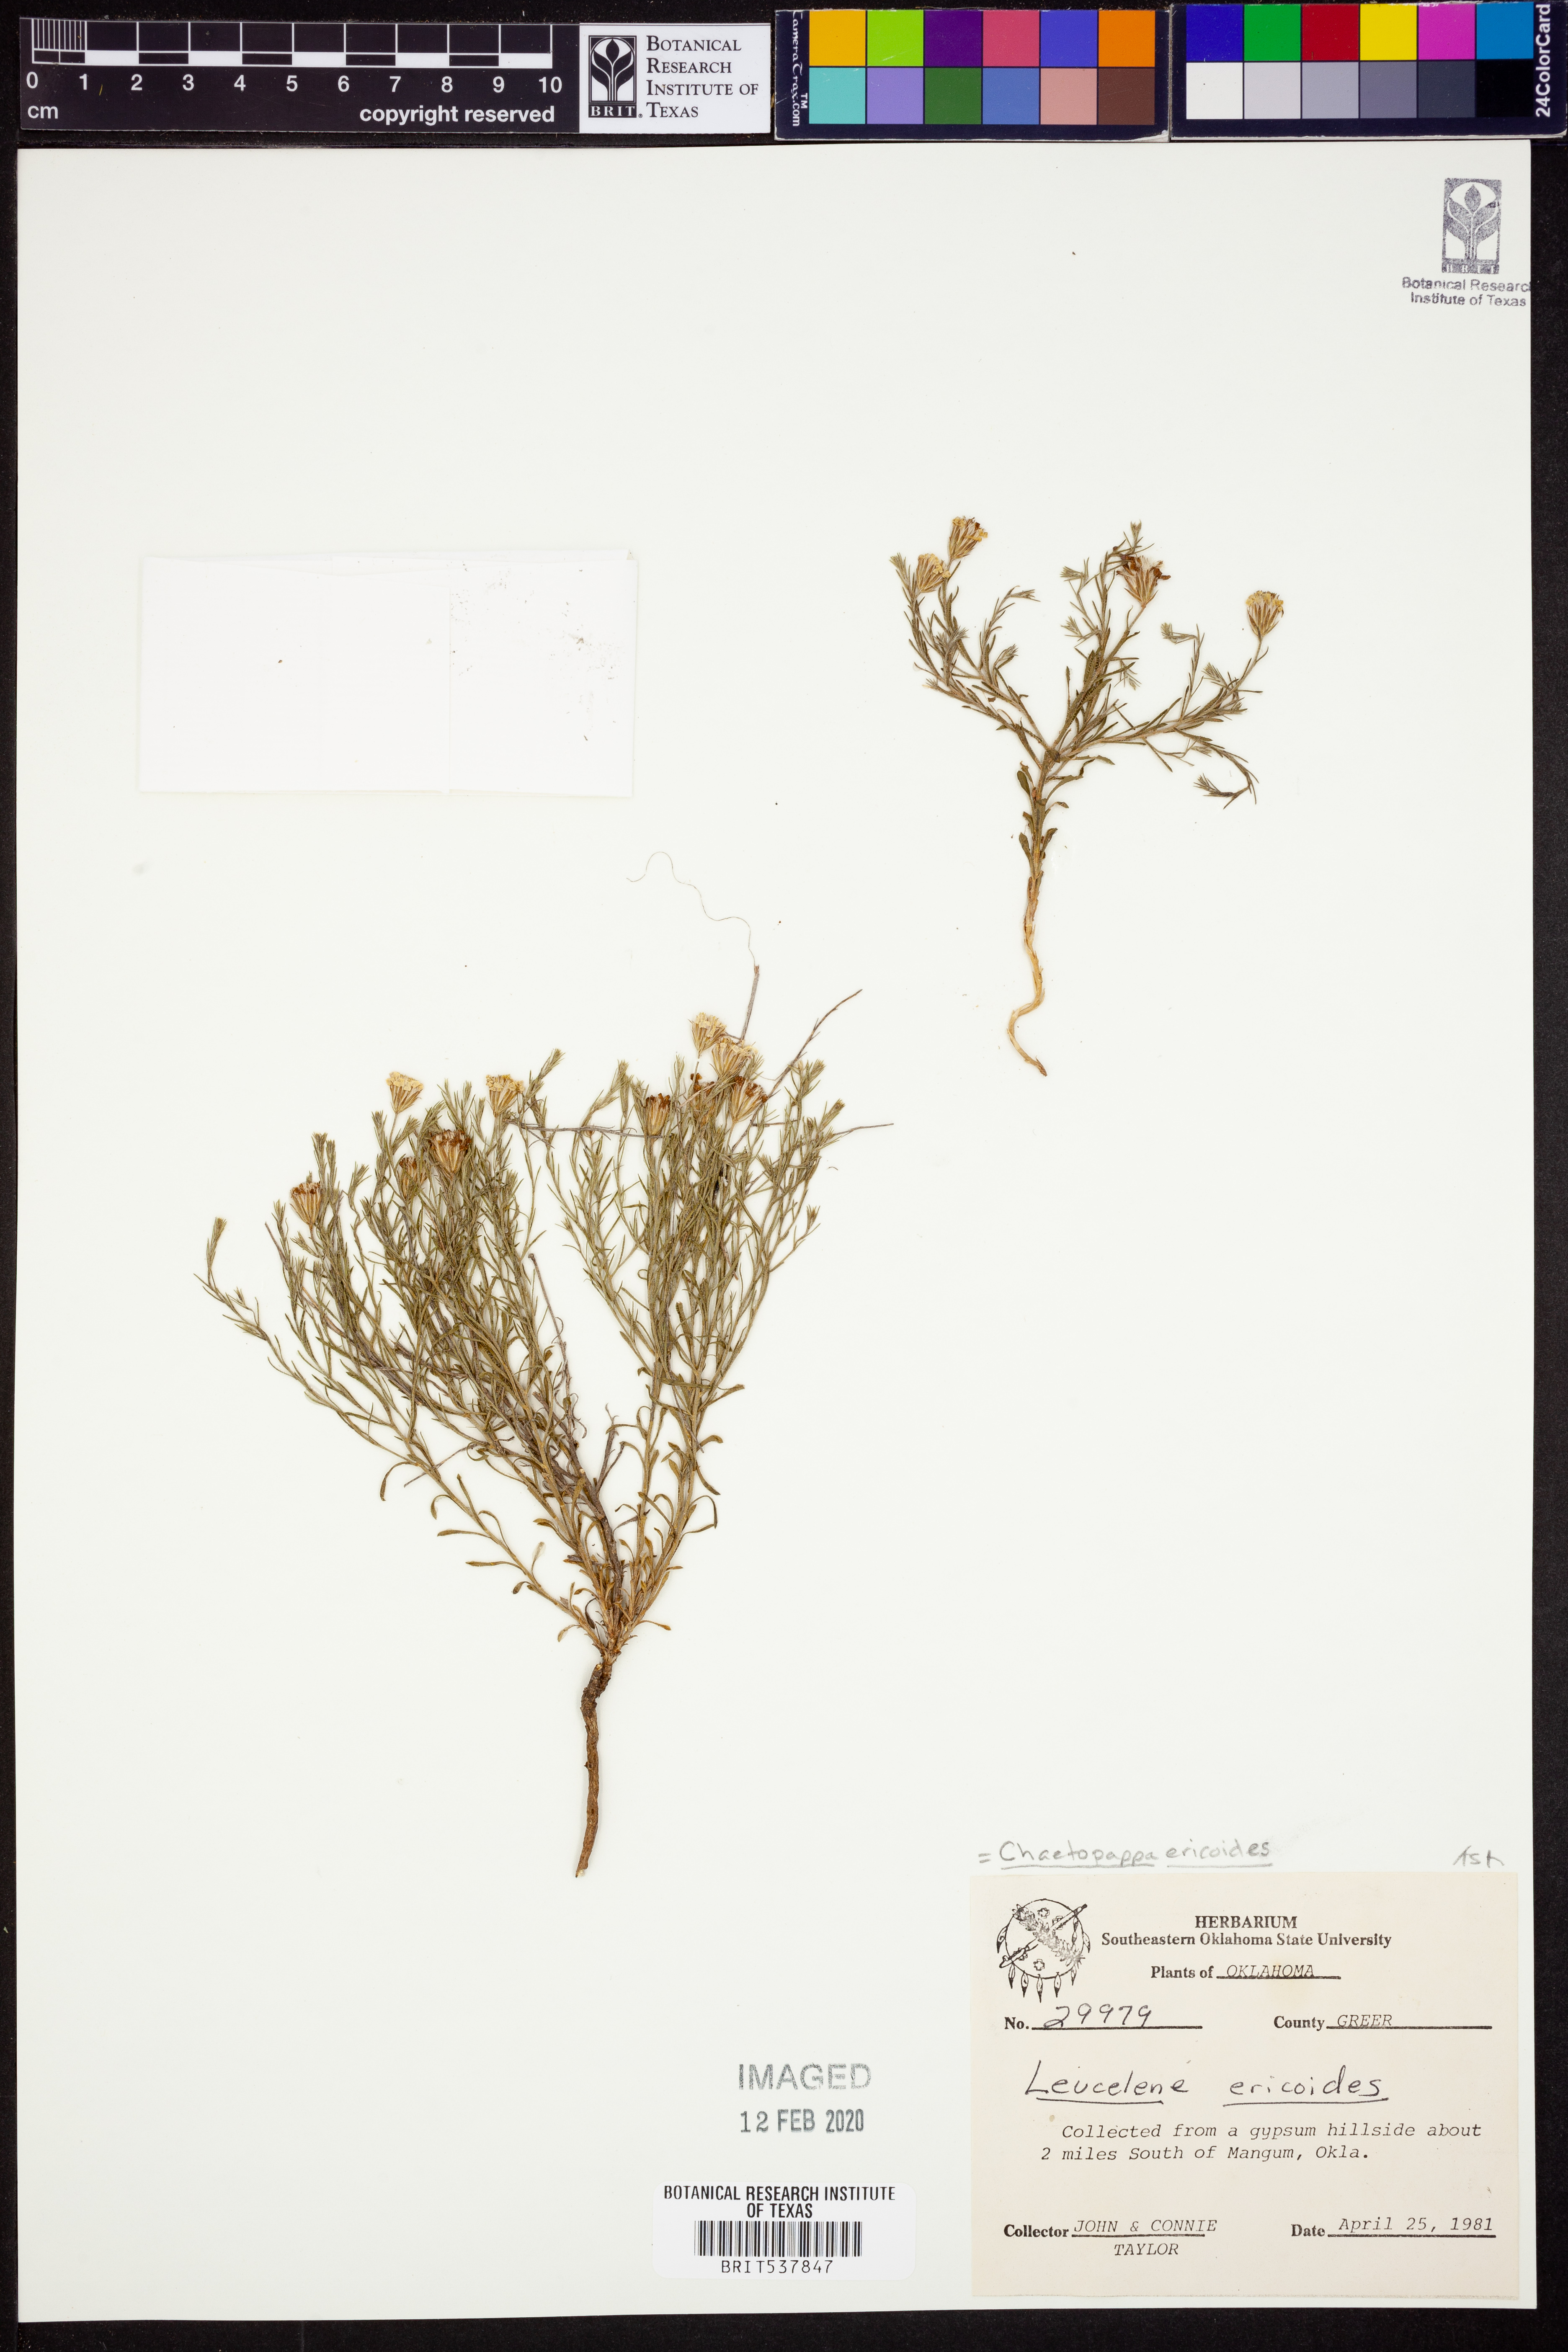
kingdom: Plantae
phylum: Tracheophyta
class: Magnoliopsida
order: Asterales
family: Asteraceae
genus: Chaetopappa
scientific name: Chaetopappa ericoides
